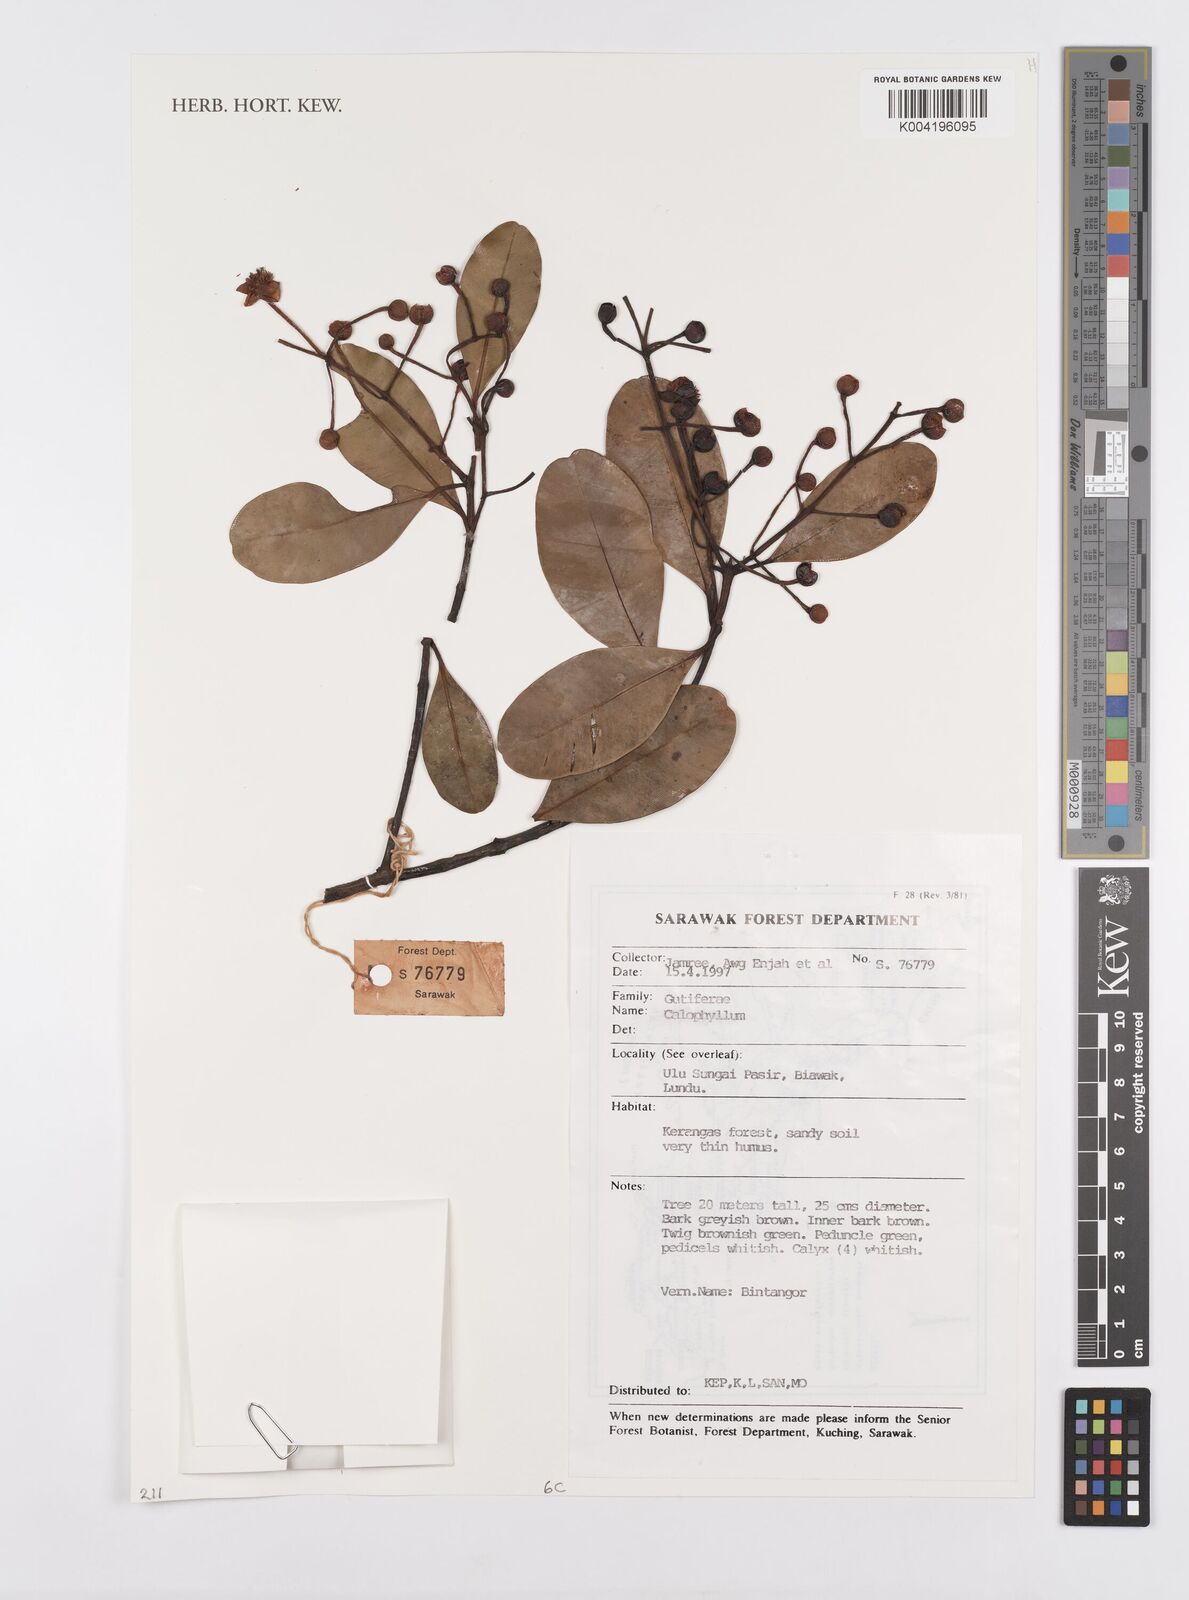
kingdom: Plantae
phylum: Tracheophyta
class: Magnoliopsida
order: Malpighiales
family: Calophyllaceae
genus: Calophyllum
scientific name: Calophyllum
